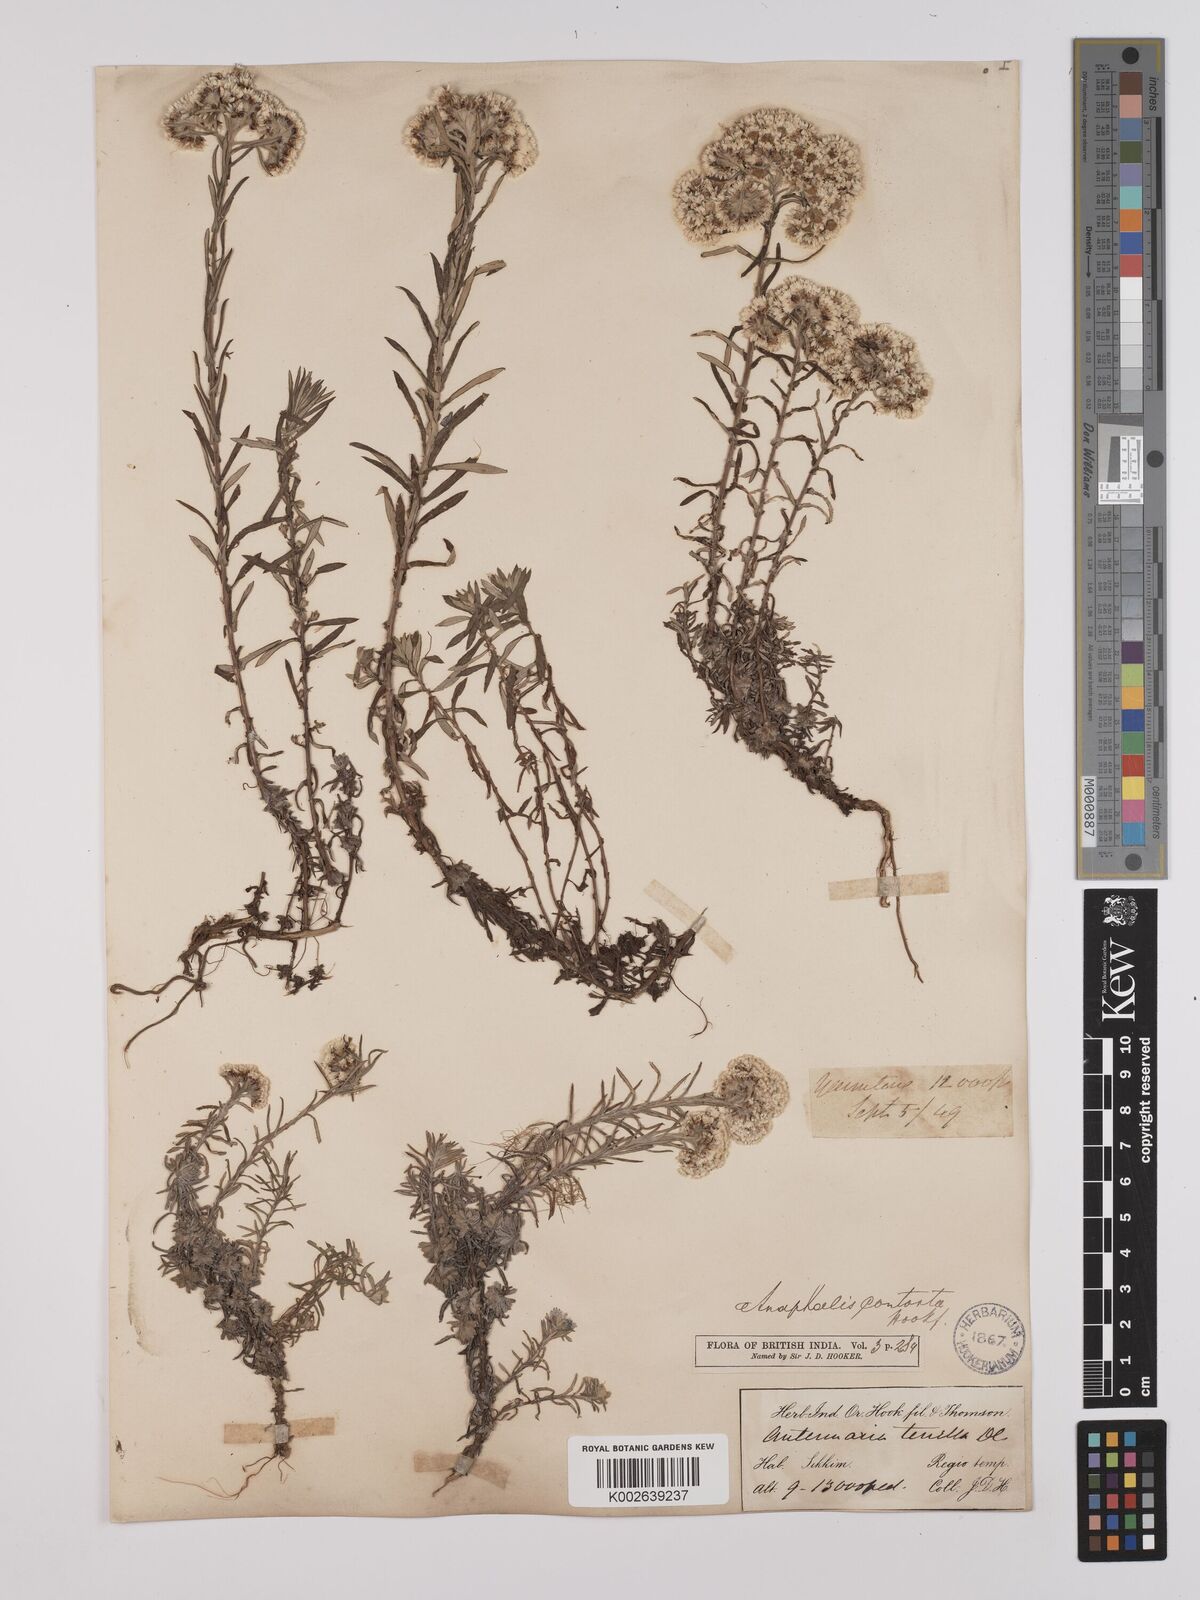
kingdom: Plantae
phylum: Tracheophyta
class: Magnoliopsida
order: Asterales
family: Asteraceae
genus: Anaphalis
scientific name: Anaphalis contorta
